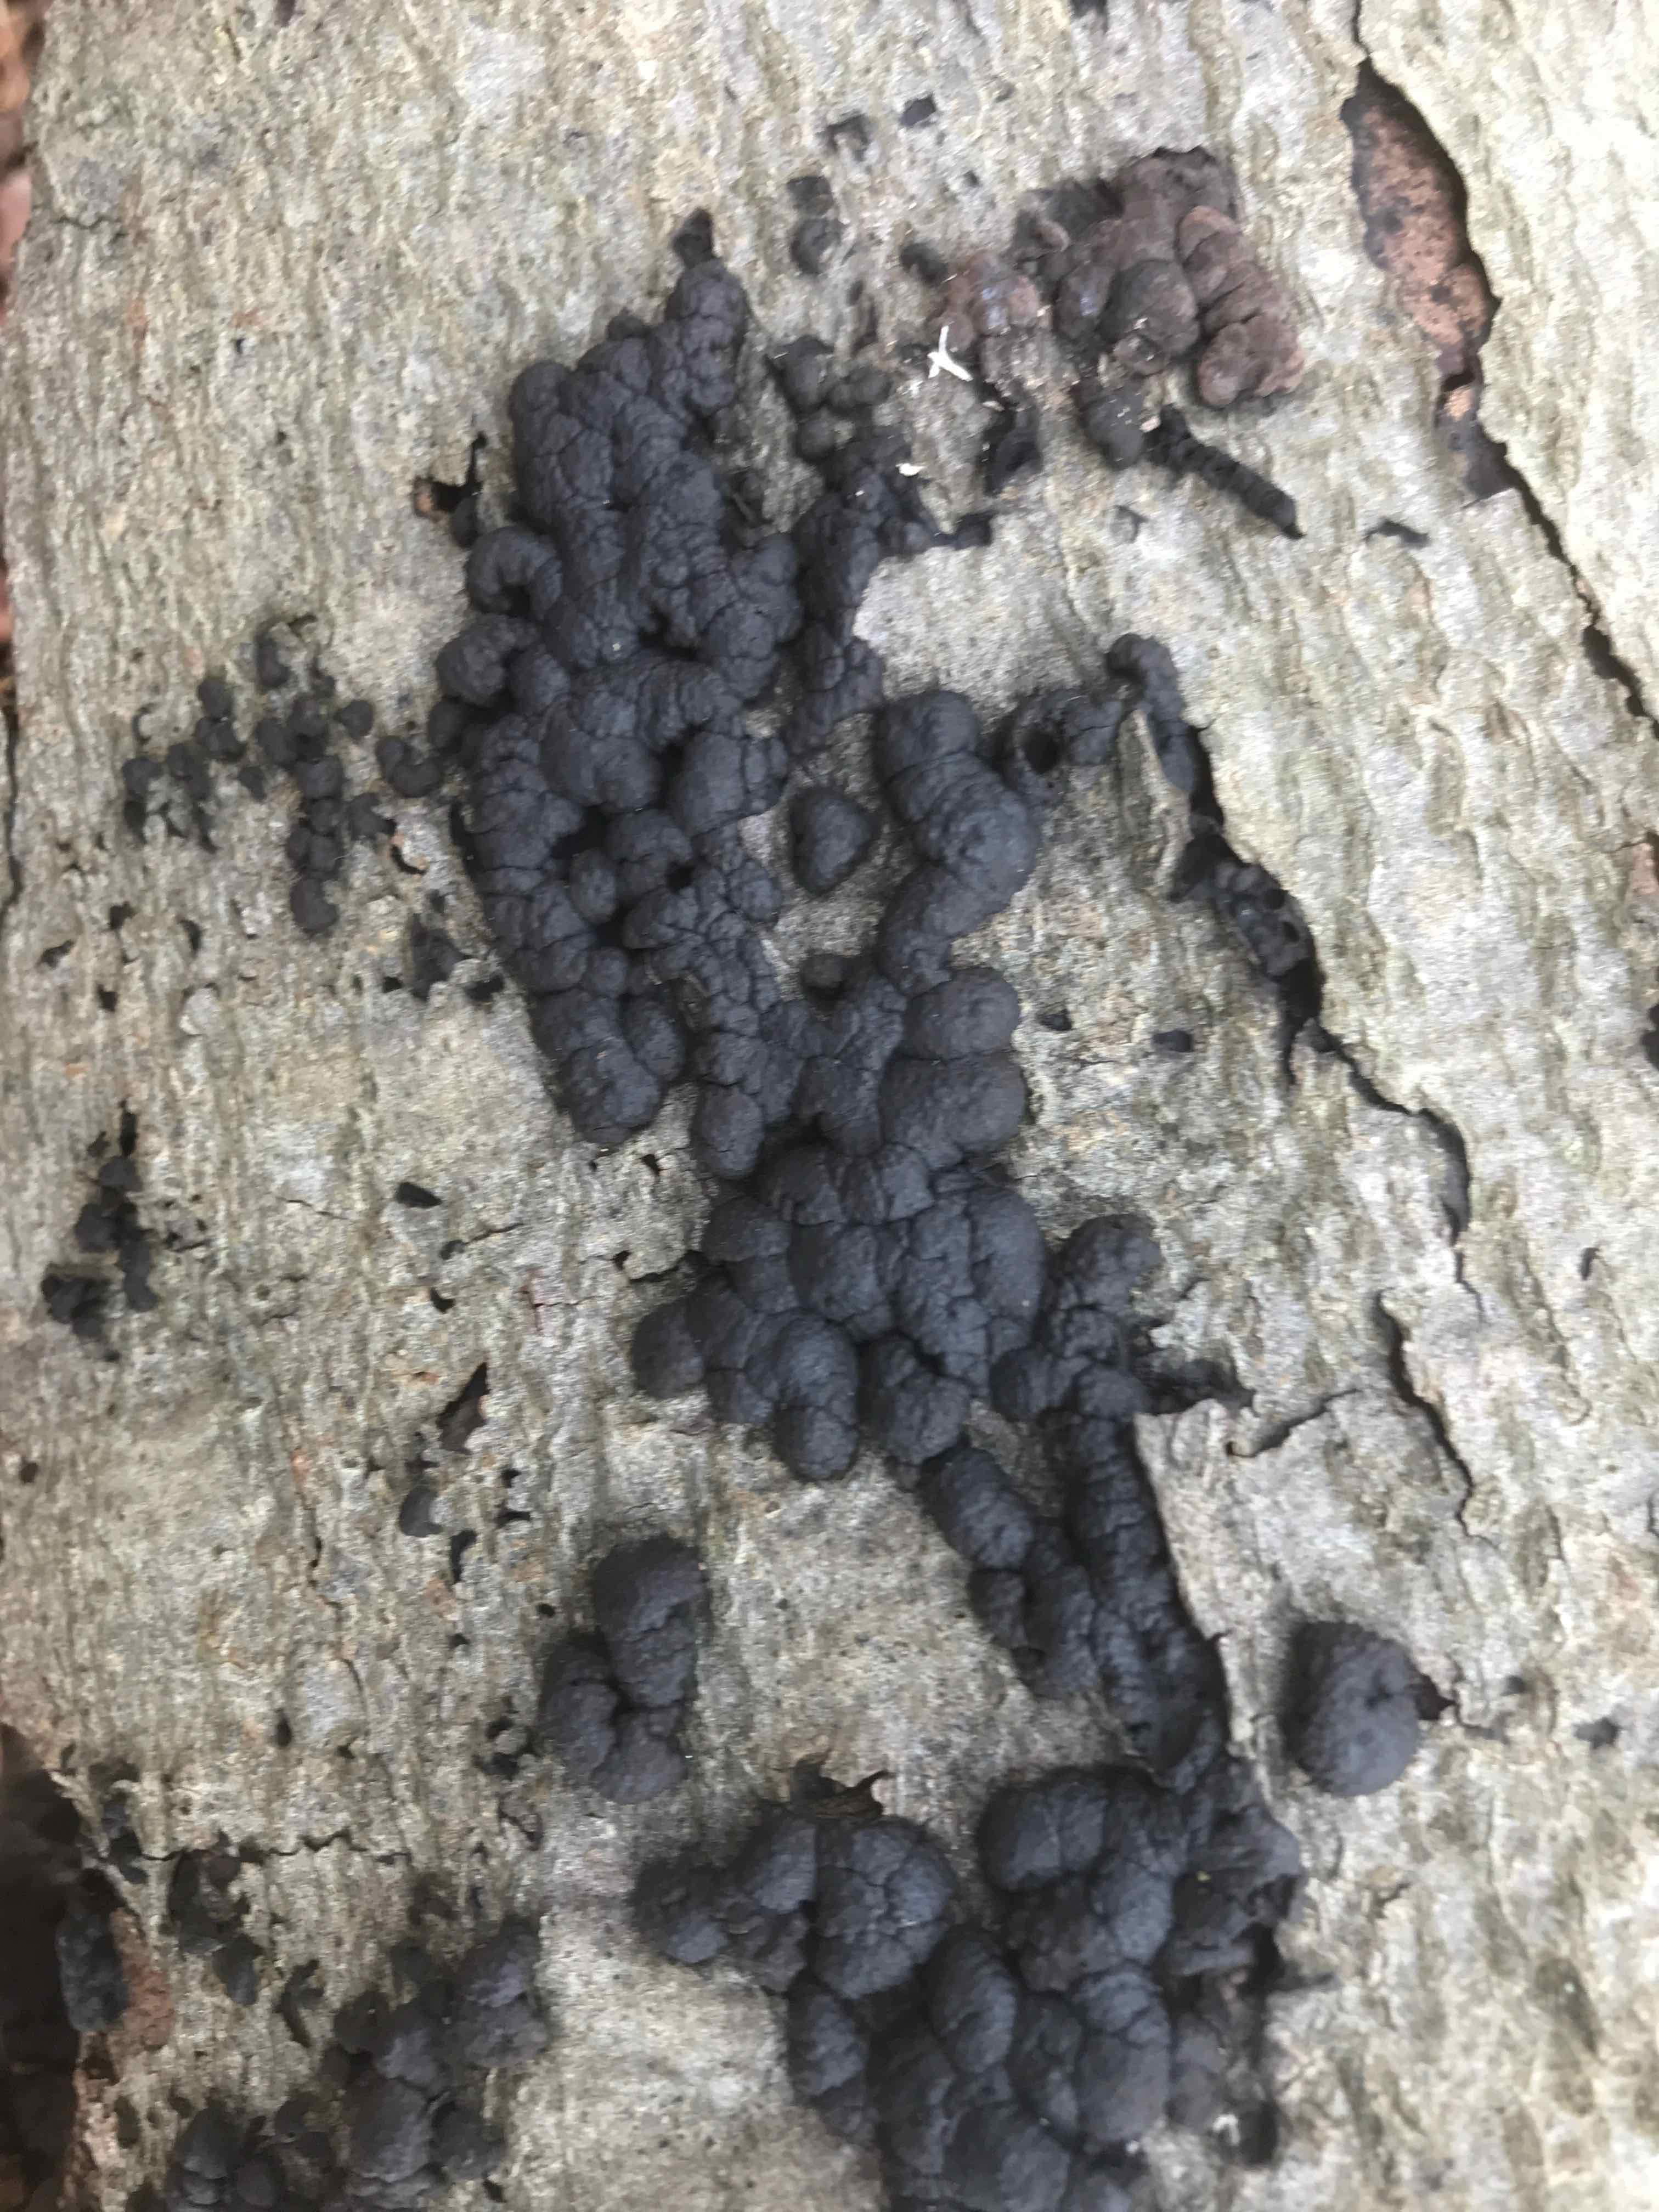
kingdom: Fungi
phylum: Ascomycota
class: Sordariomycetes
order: Xylariales
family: Hypoxylaceae
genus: Jackrogersella
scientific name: Jackrogersella cohaerens
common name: sammenflydende kulbær
